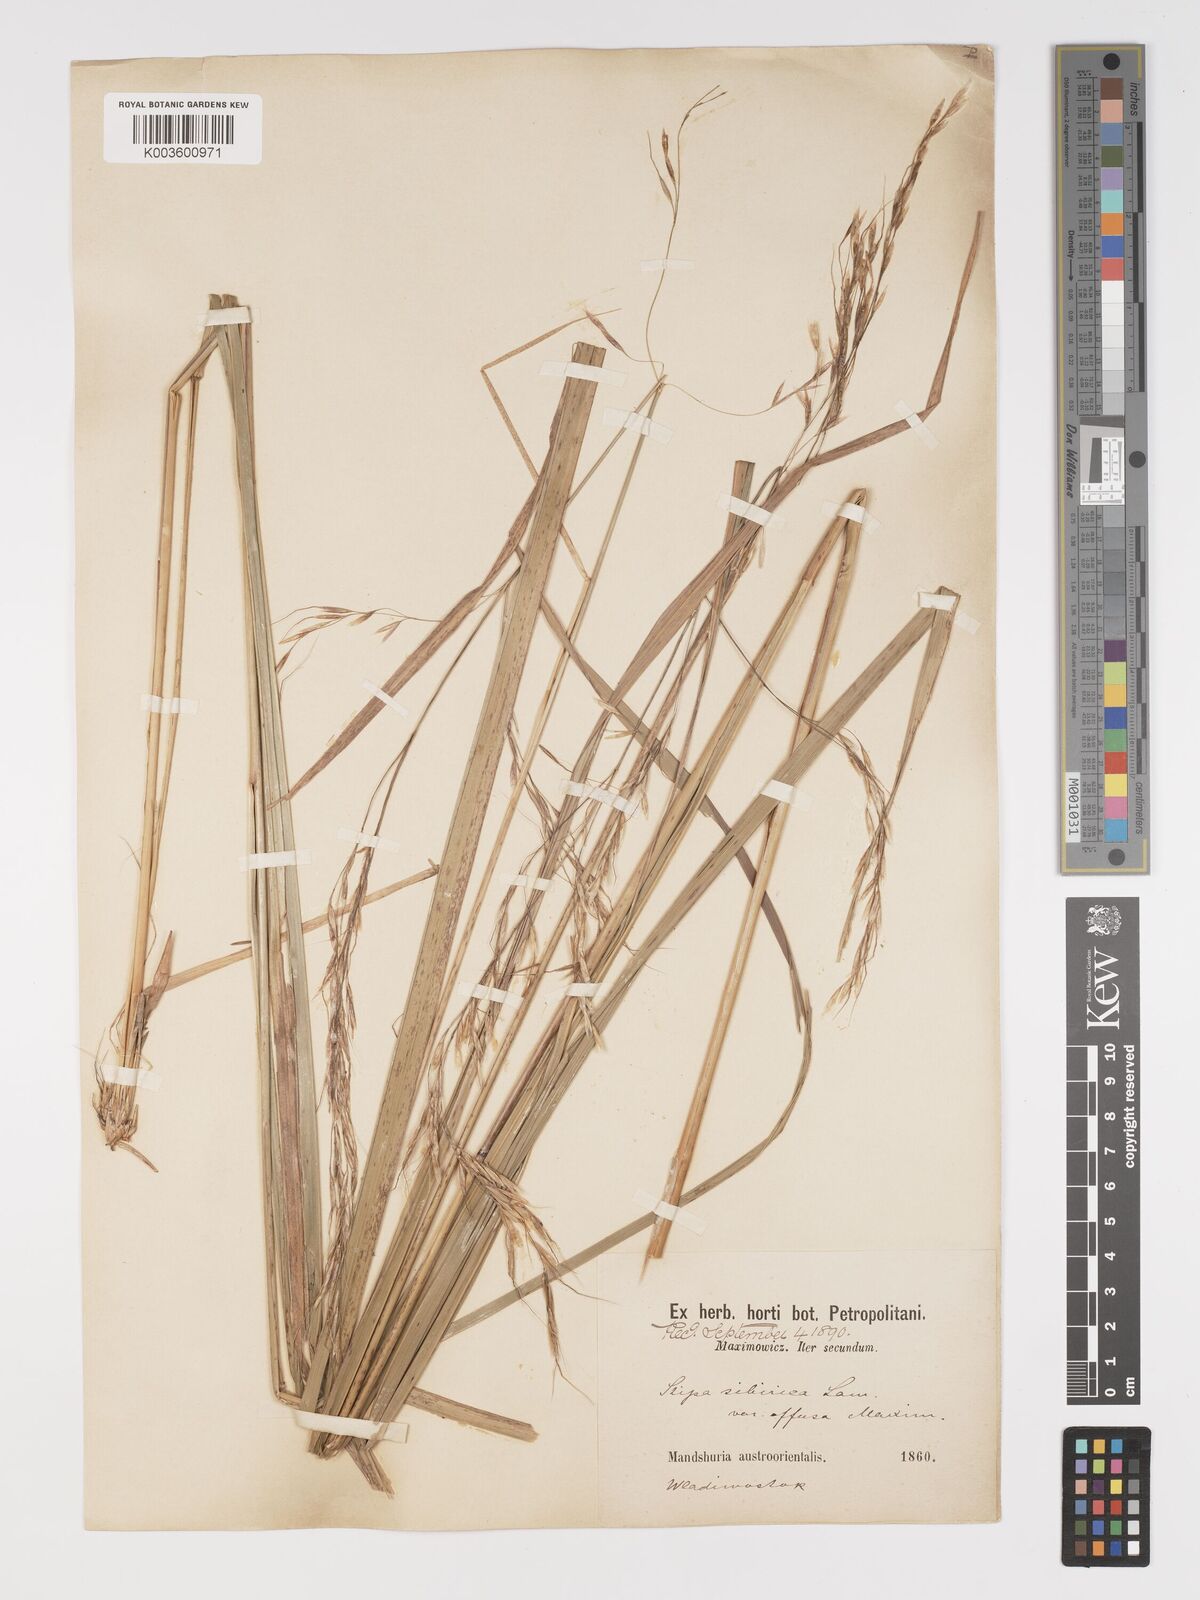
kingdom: Plantae
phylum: Tracheophyta
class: Liliopsida
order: Poales
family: Poaceae
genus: Achnatherum
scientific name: Achnatherum pekinense
